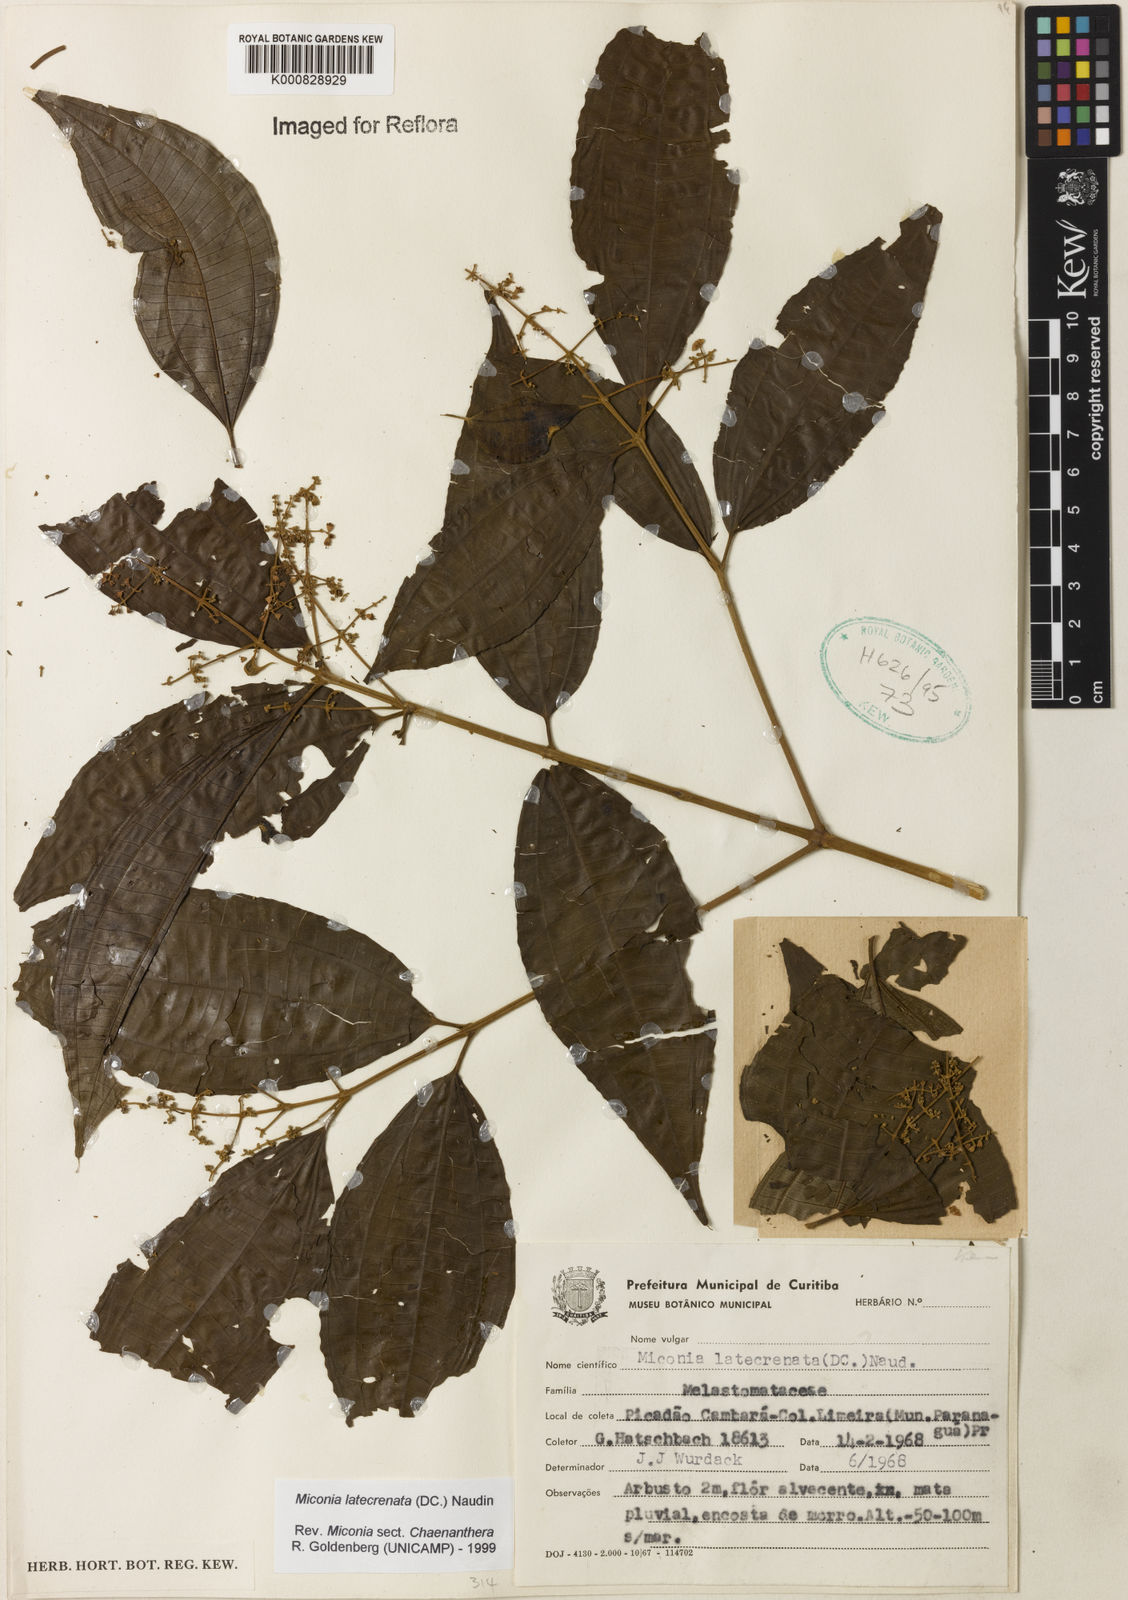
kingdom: Plantae
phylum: Tracheophyta
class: Magnoliopsida
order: Myrtales
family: Melastomataceae
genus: Miconia
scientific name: Miconia latecrenata
